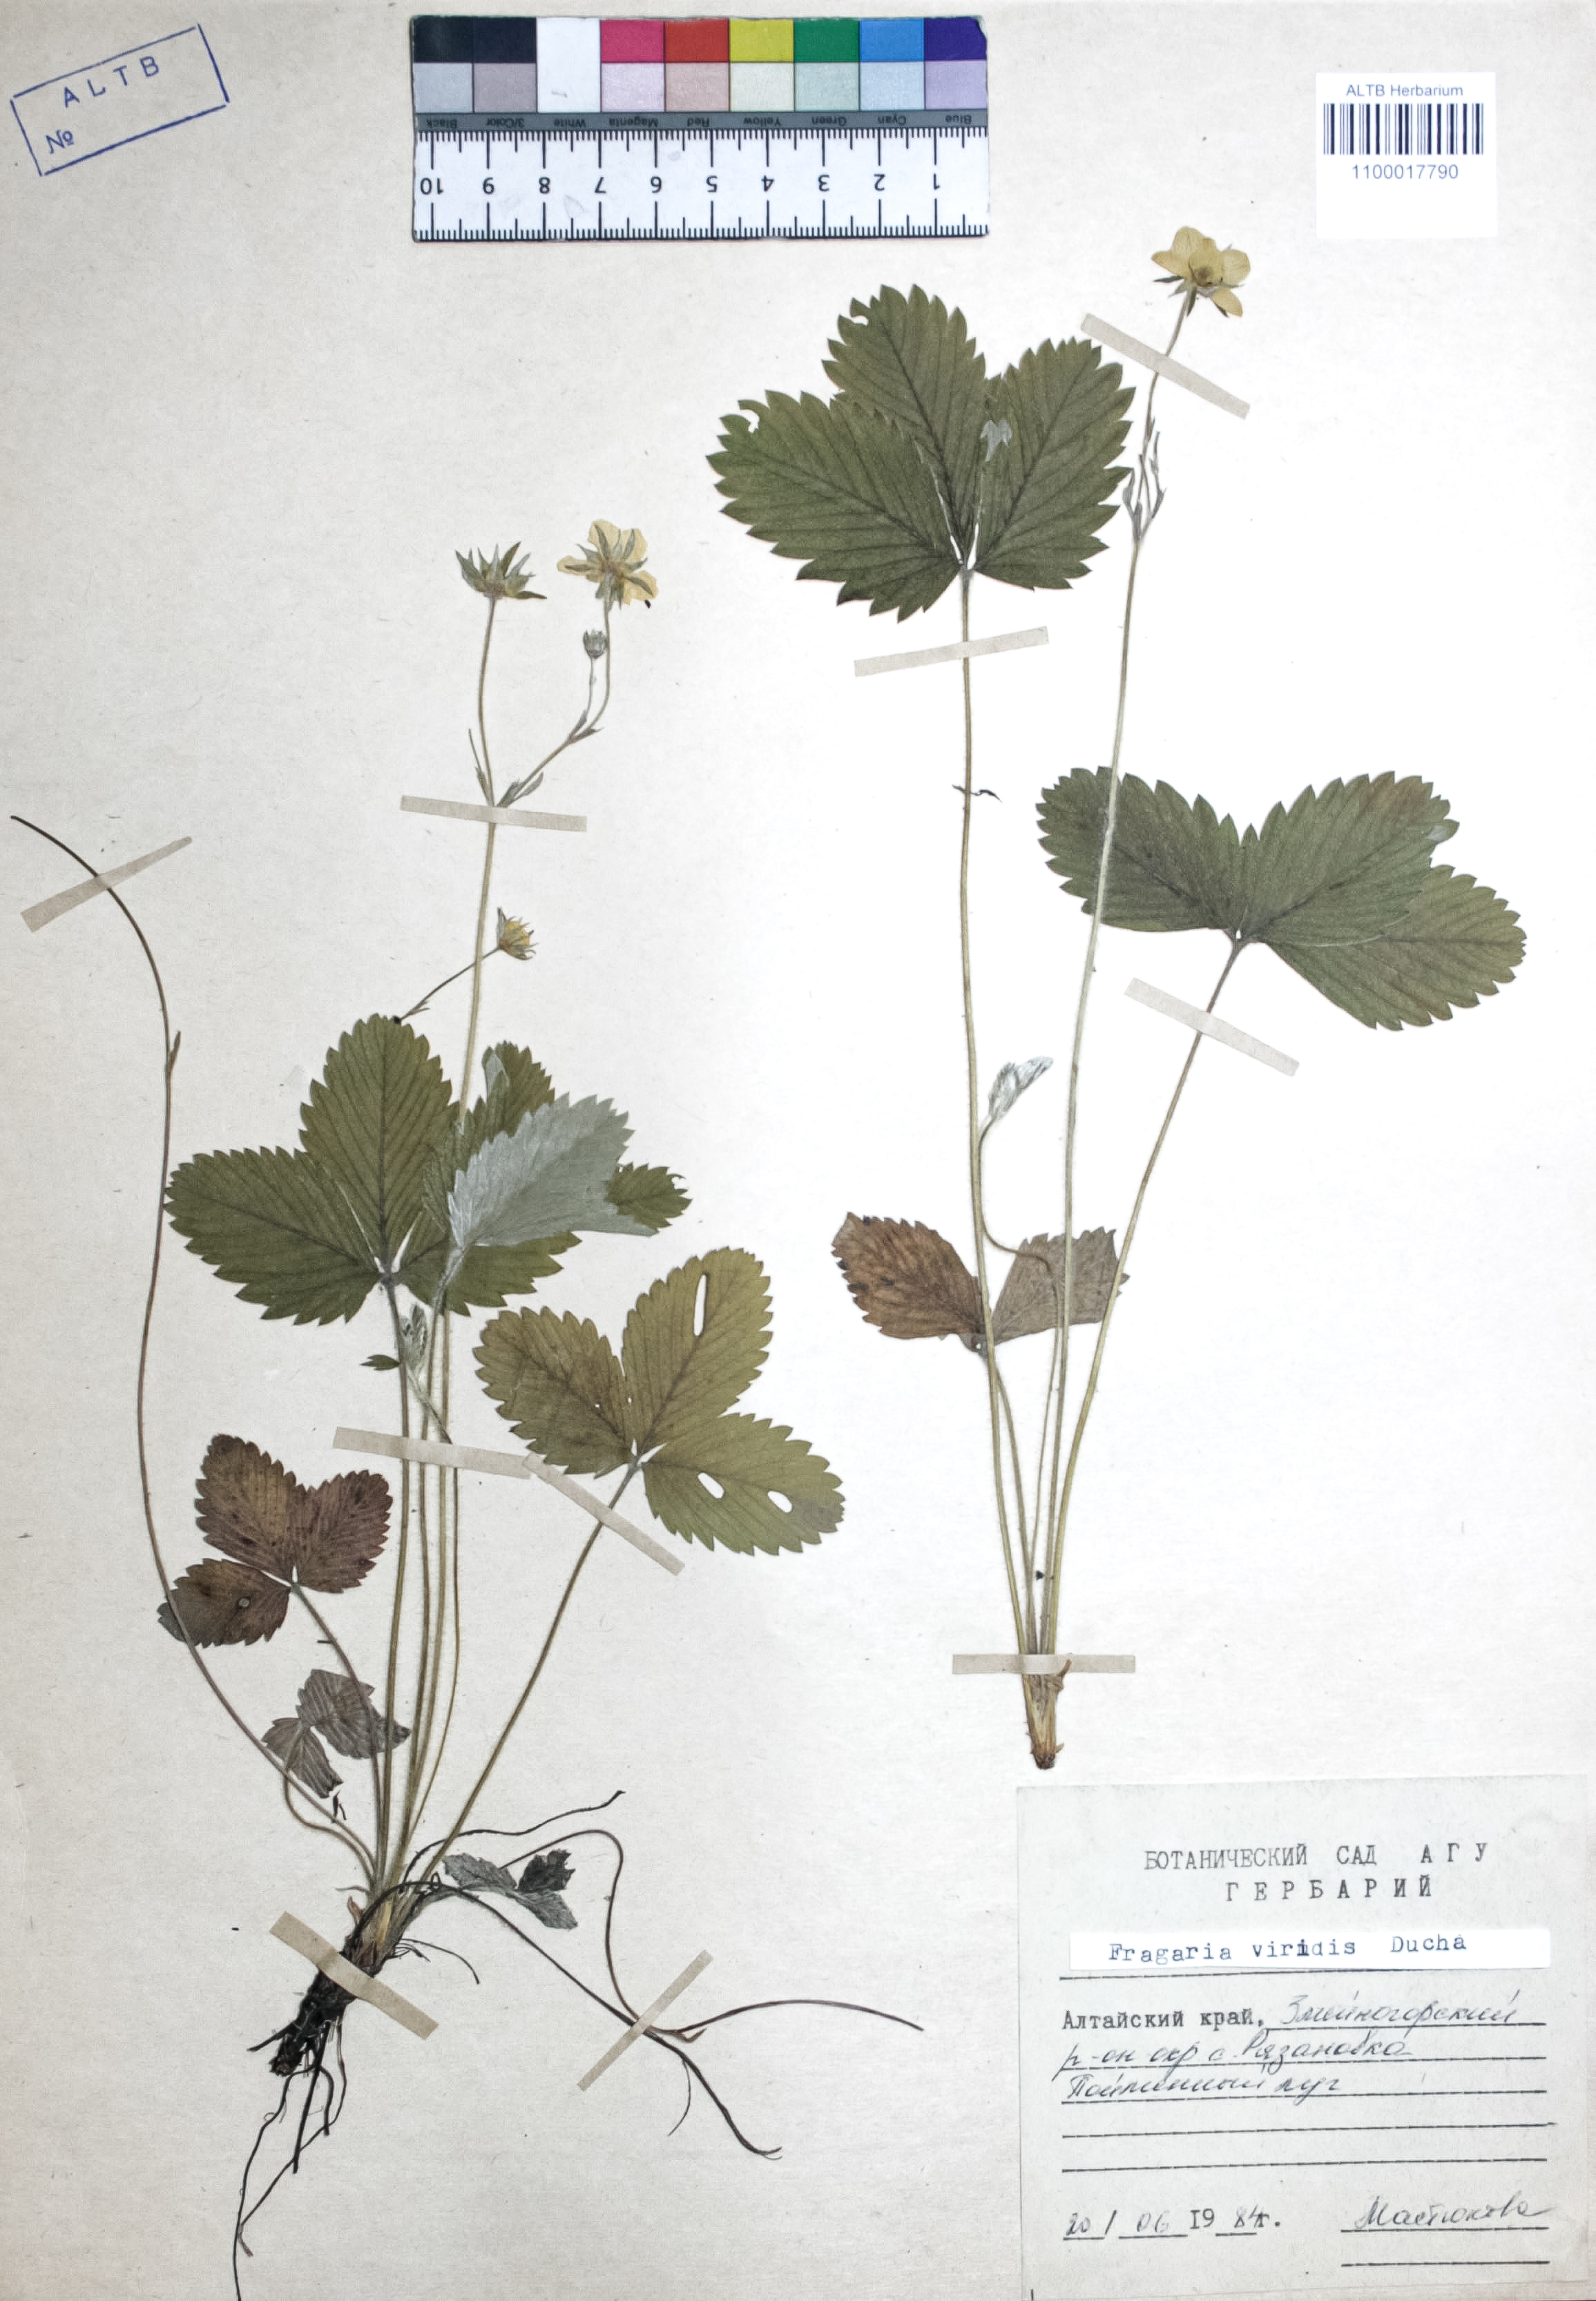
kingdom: Plantae
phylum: Tracheophyta
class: Magnoliopsida
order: Rosales
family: Rosaceae
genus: Fragaria
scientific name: Fragaria viridis
